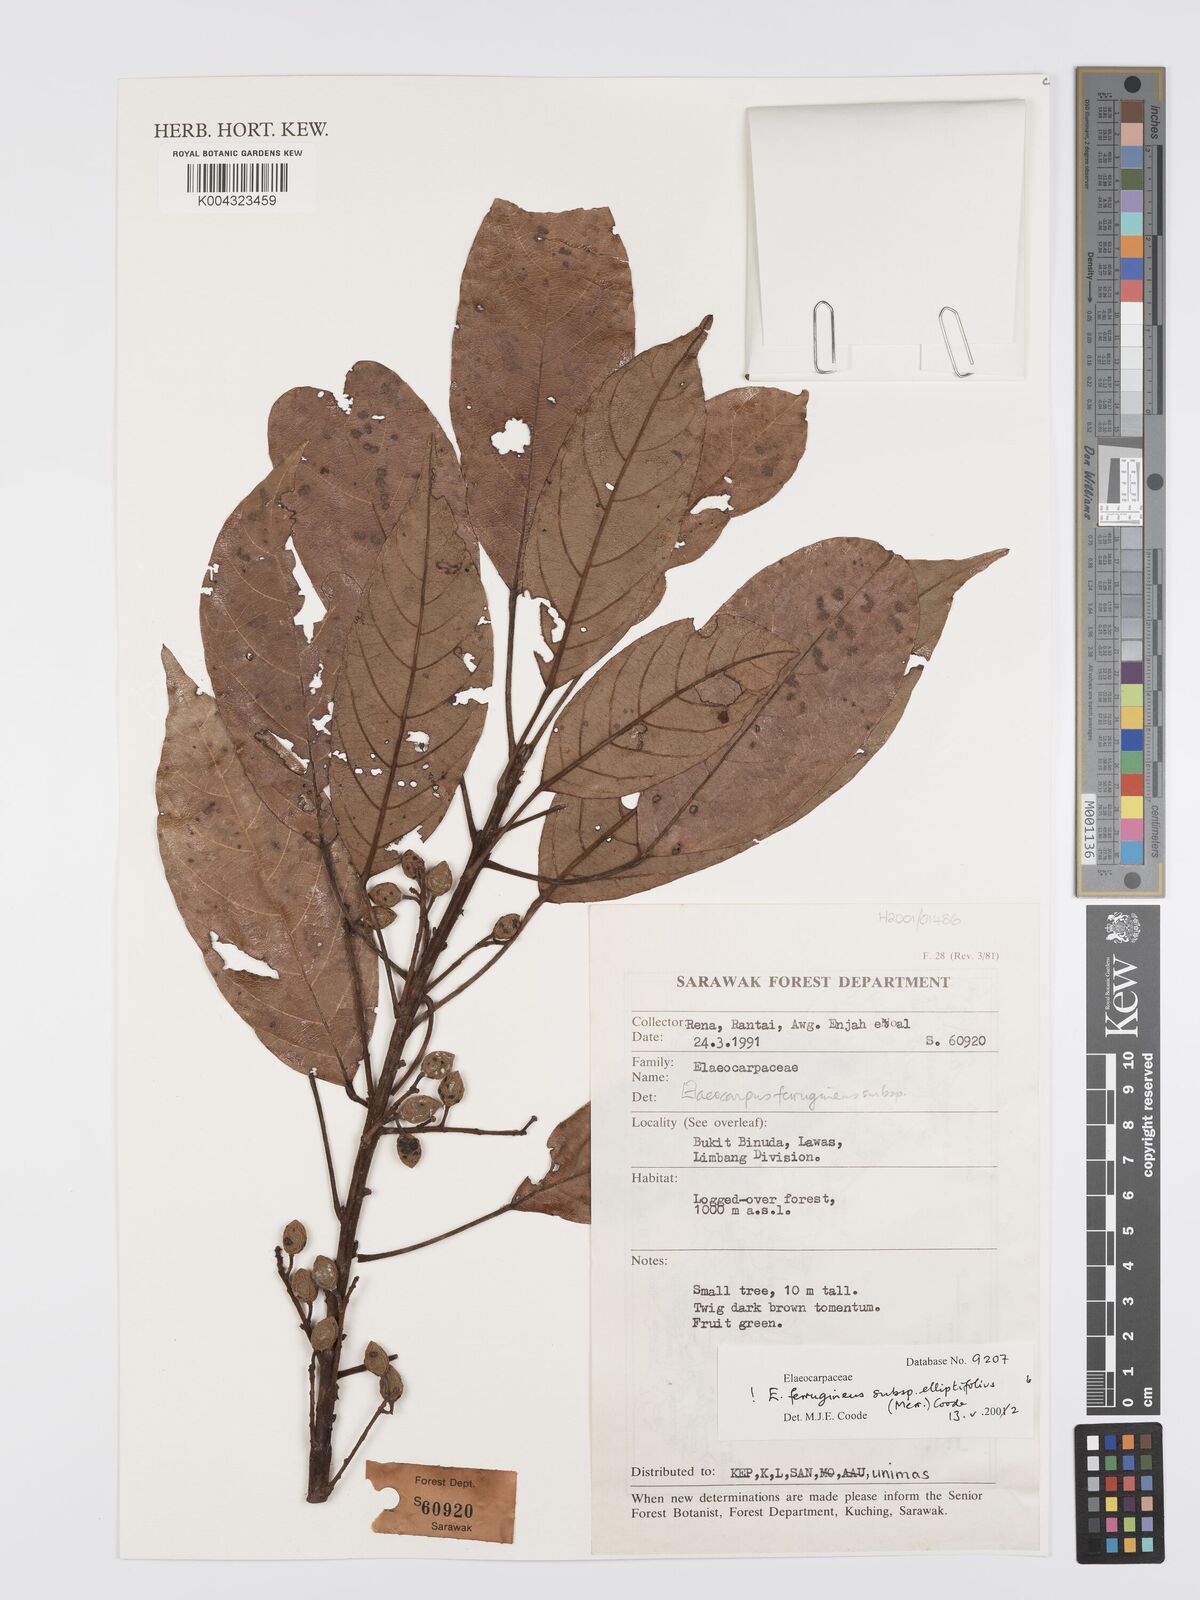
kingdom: Plantae
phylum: Tracheophyta
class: Magnoliopsida
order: Oxalidales
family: Elaeocarpaceae
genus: Elaeocarpus
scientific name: Elaeocarpus ferrugineus
